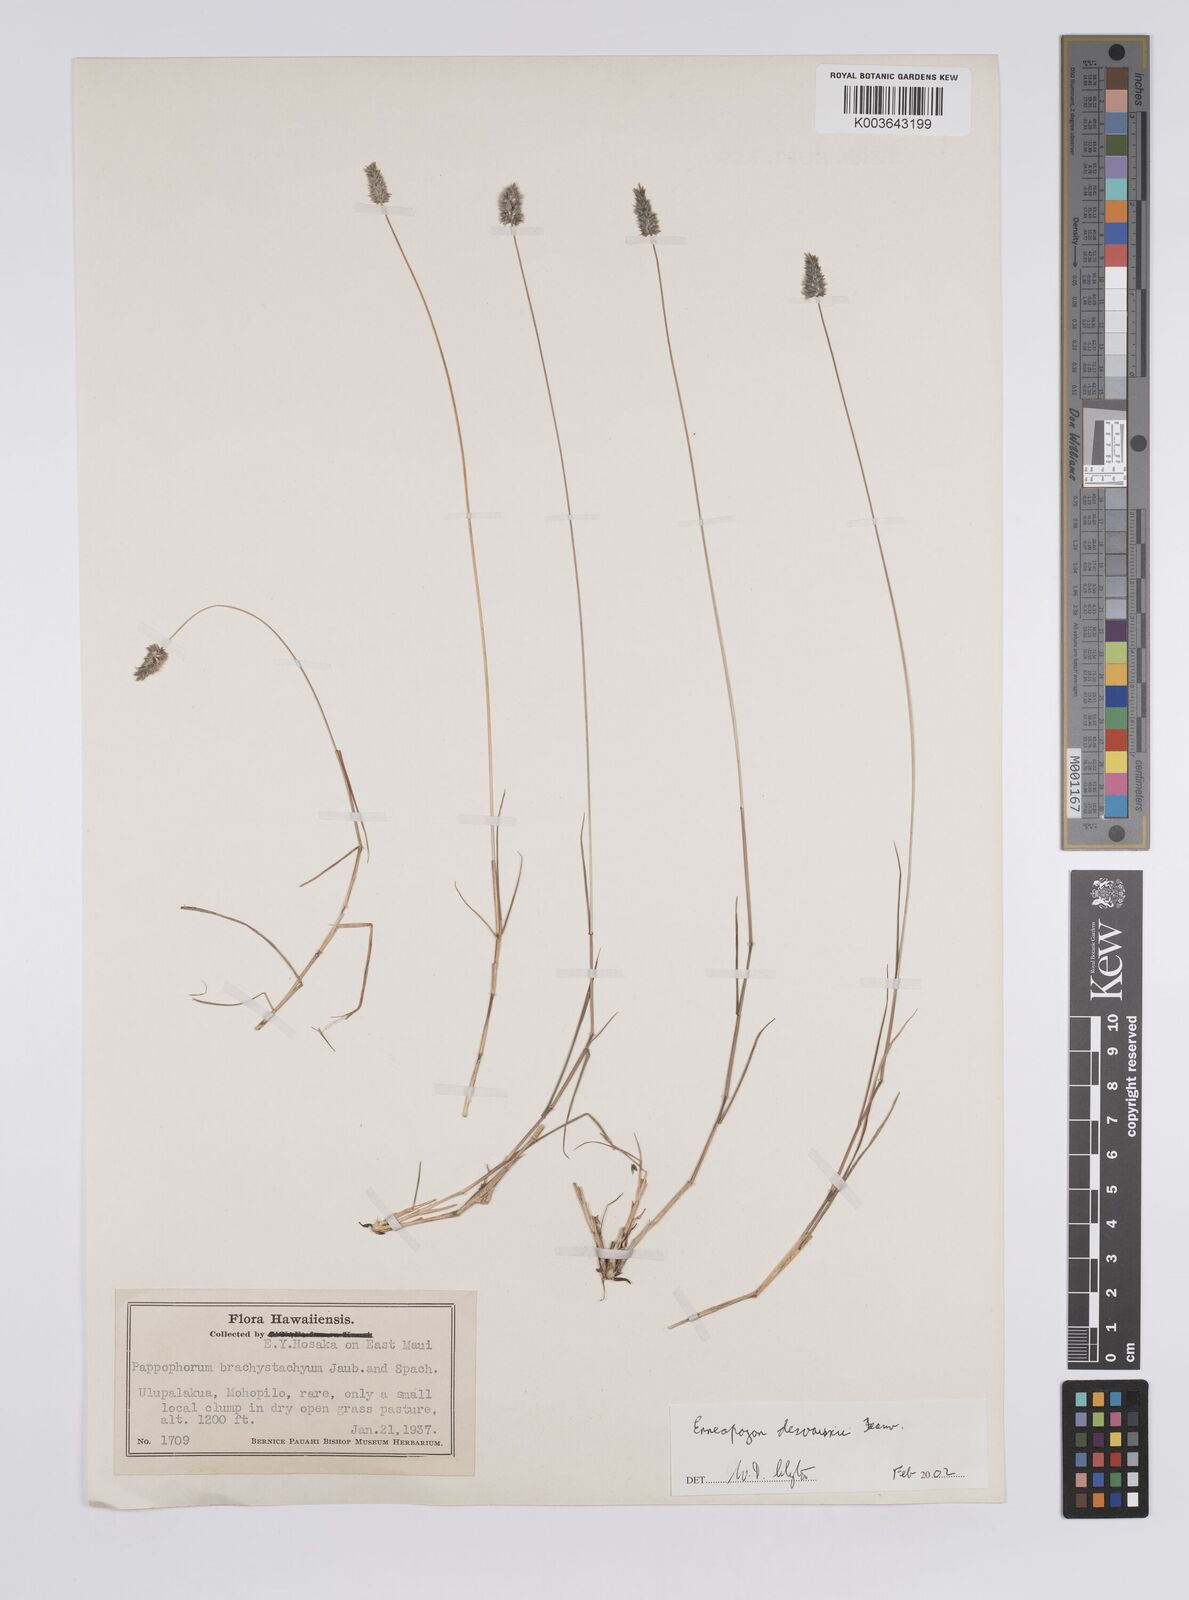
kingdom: Plantae
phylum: Tracheophyta
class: Liliopsida
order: Poales
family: Poaceae
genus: Enneapogon
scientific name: Enneapogon desvauxii
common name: Feather pappus grass
